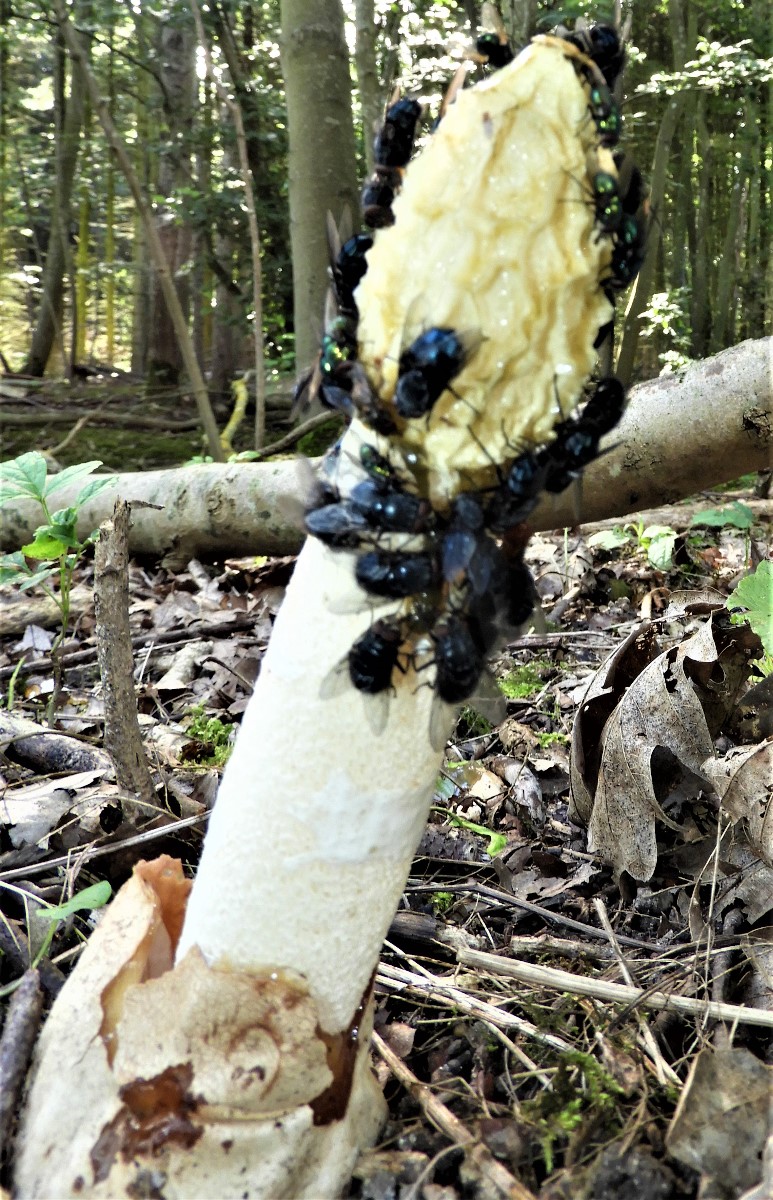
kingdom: Fungi
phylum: Basidiomycota
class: Agaricomycetes
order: Phallales
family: Phallaceae
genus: Phallus
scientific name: Phallus impudicus
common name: almindelig stinksvamp
